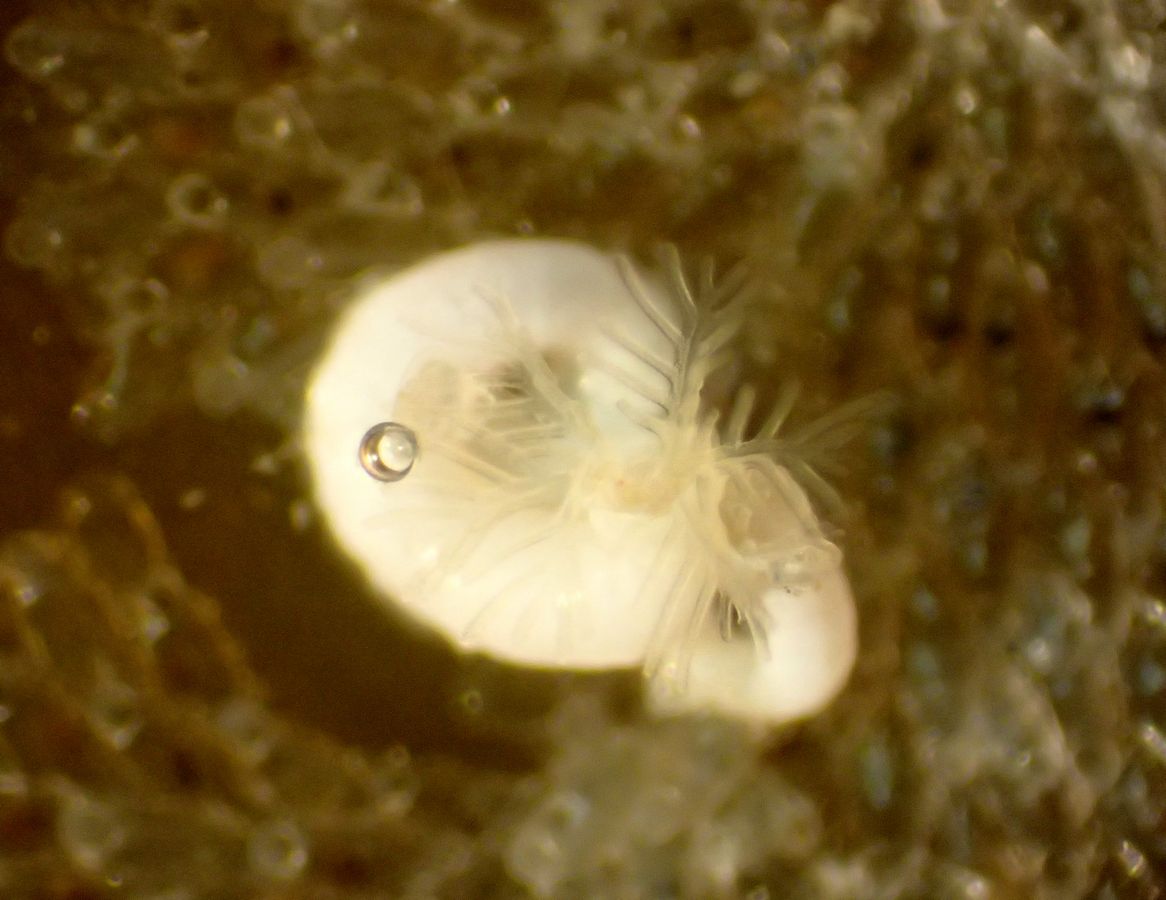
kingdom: Animalia
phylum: Annelida
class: Polychaeta
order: Sabellida
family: Serpulidae
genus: Circeis
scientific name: Circeis armoricana
